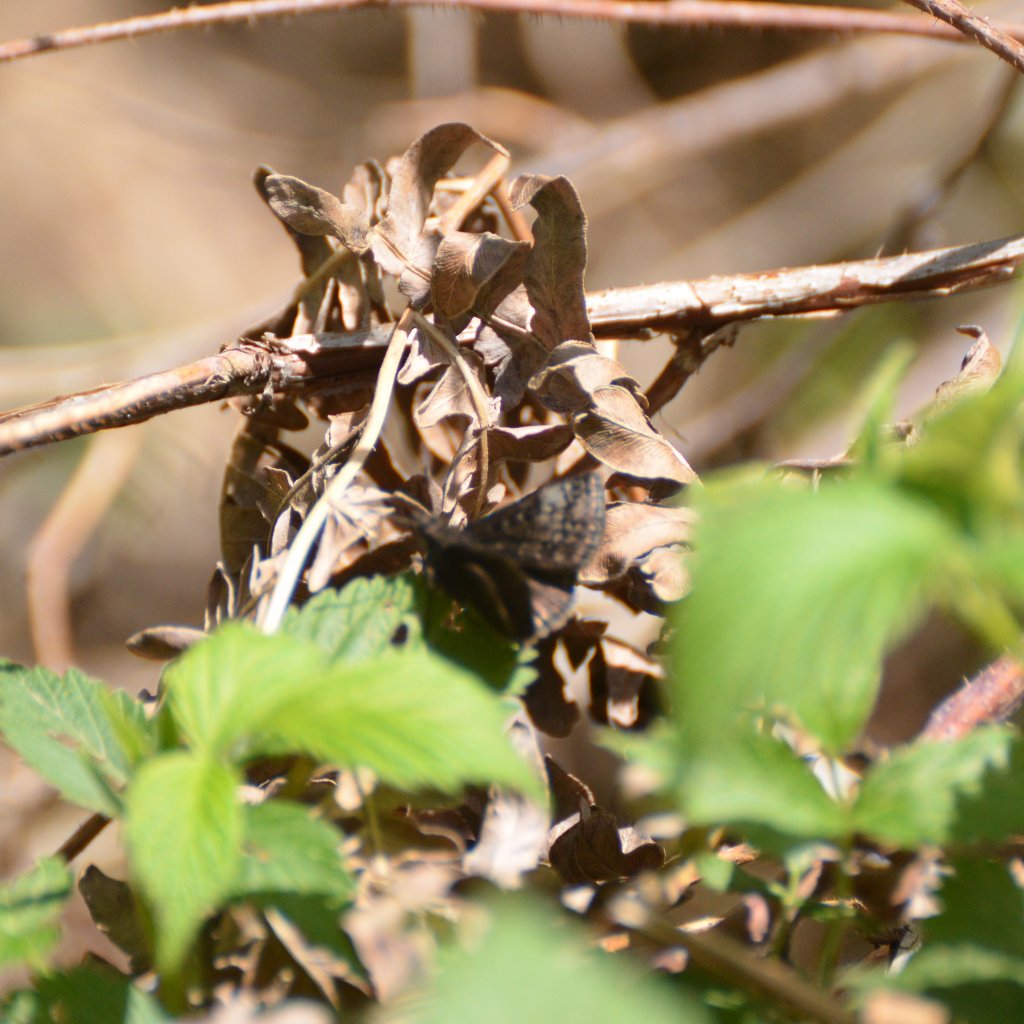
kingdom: Animalia
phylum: Arthropoda
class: Insecta
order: Lepidoptera
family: Hesperiidae
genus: Erynnis
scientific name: Erynnis icelus
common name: Dreamy Duskywing
